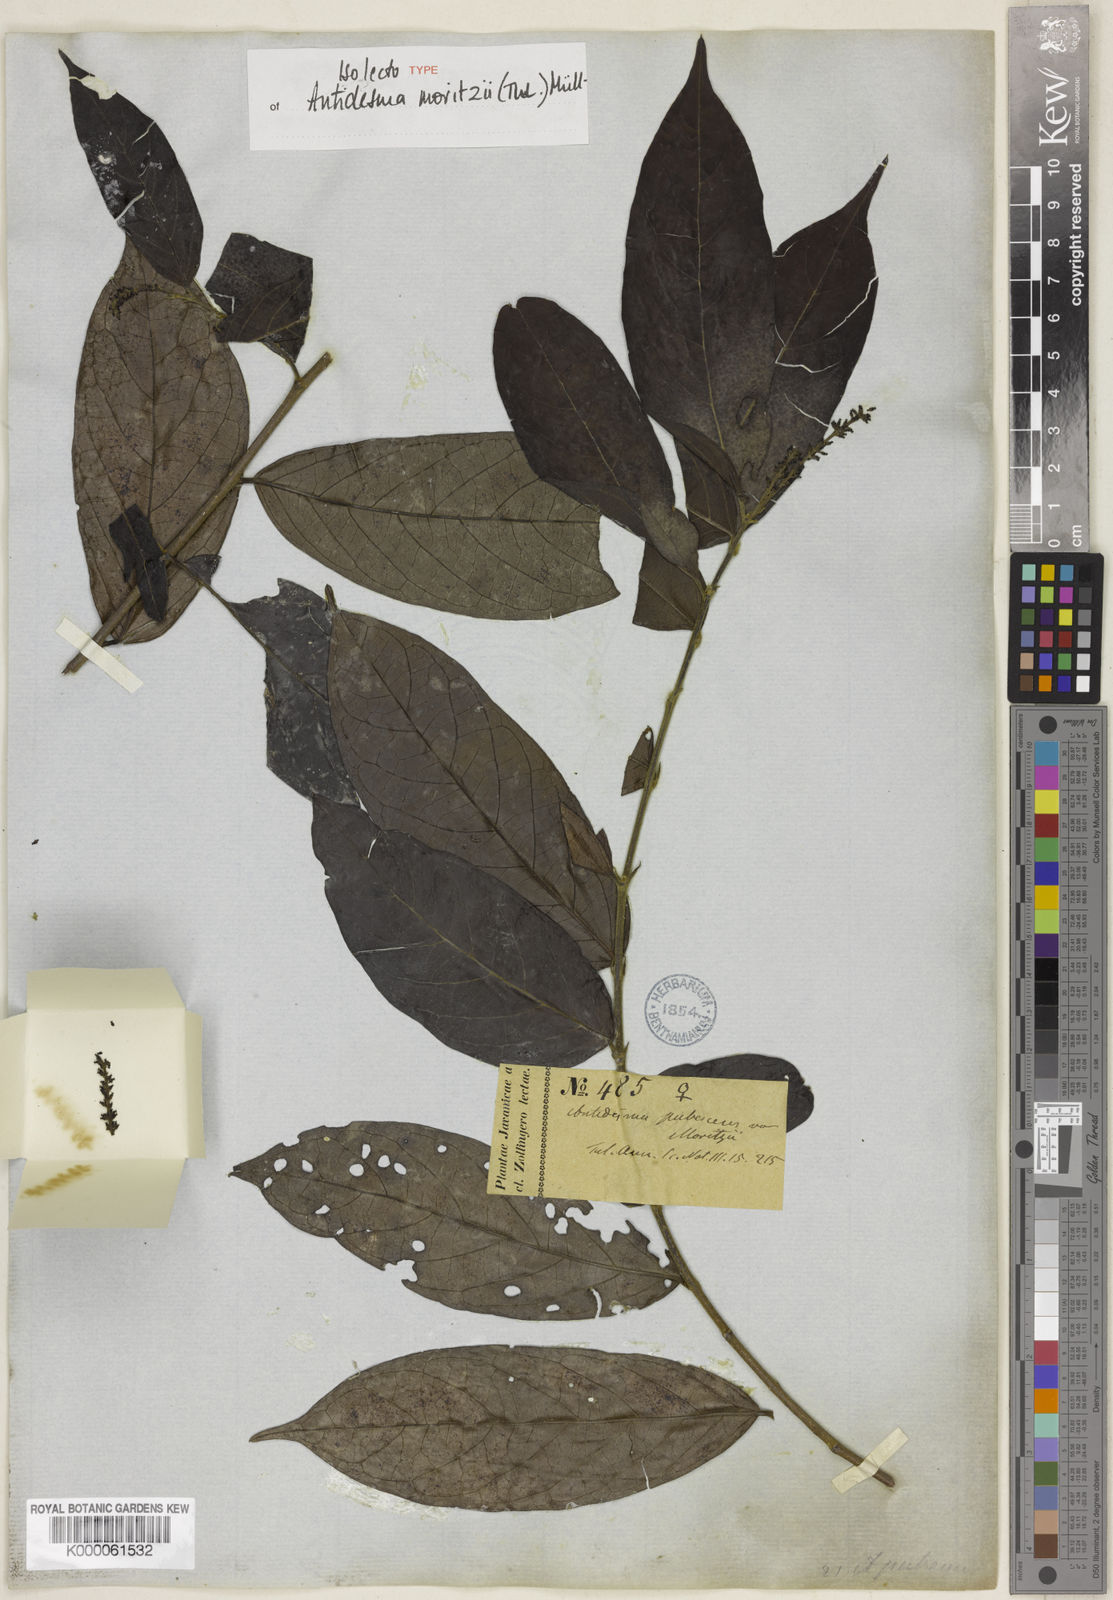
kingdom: Plantae
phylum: Tracheophyta
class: Magnoliopsida
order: Malpighiales
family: Phyllanthaceae
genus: Antidesma
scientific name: Antidesma montanum
